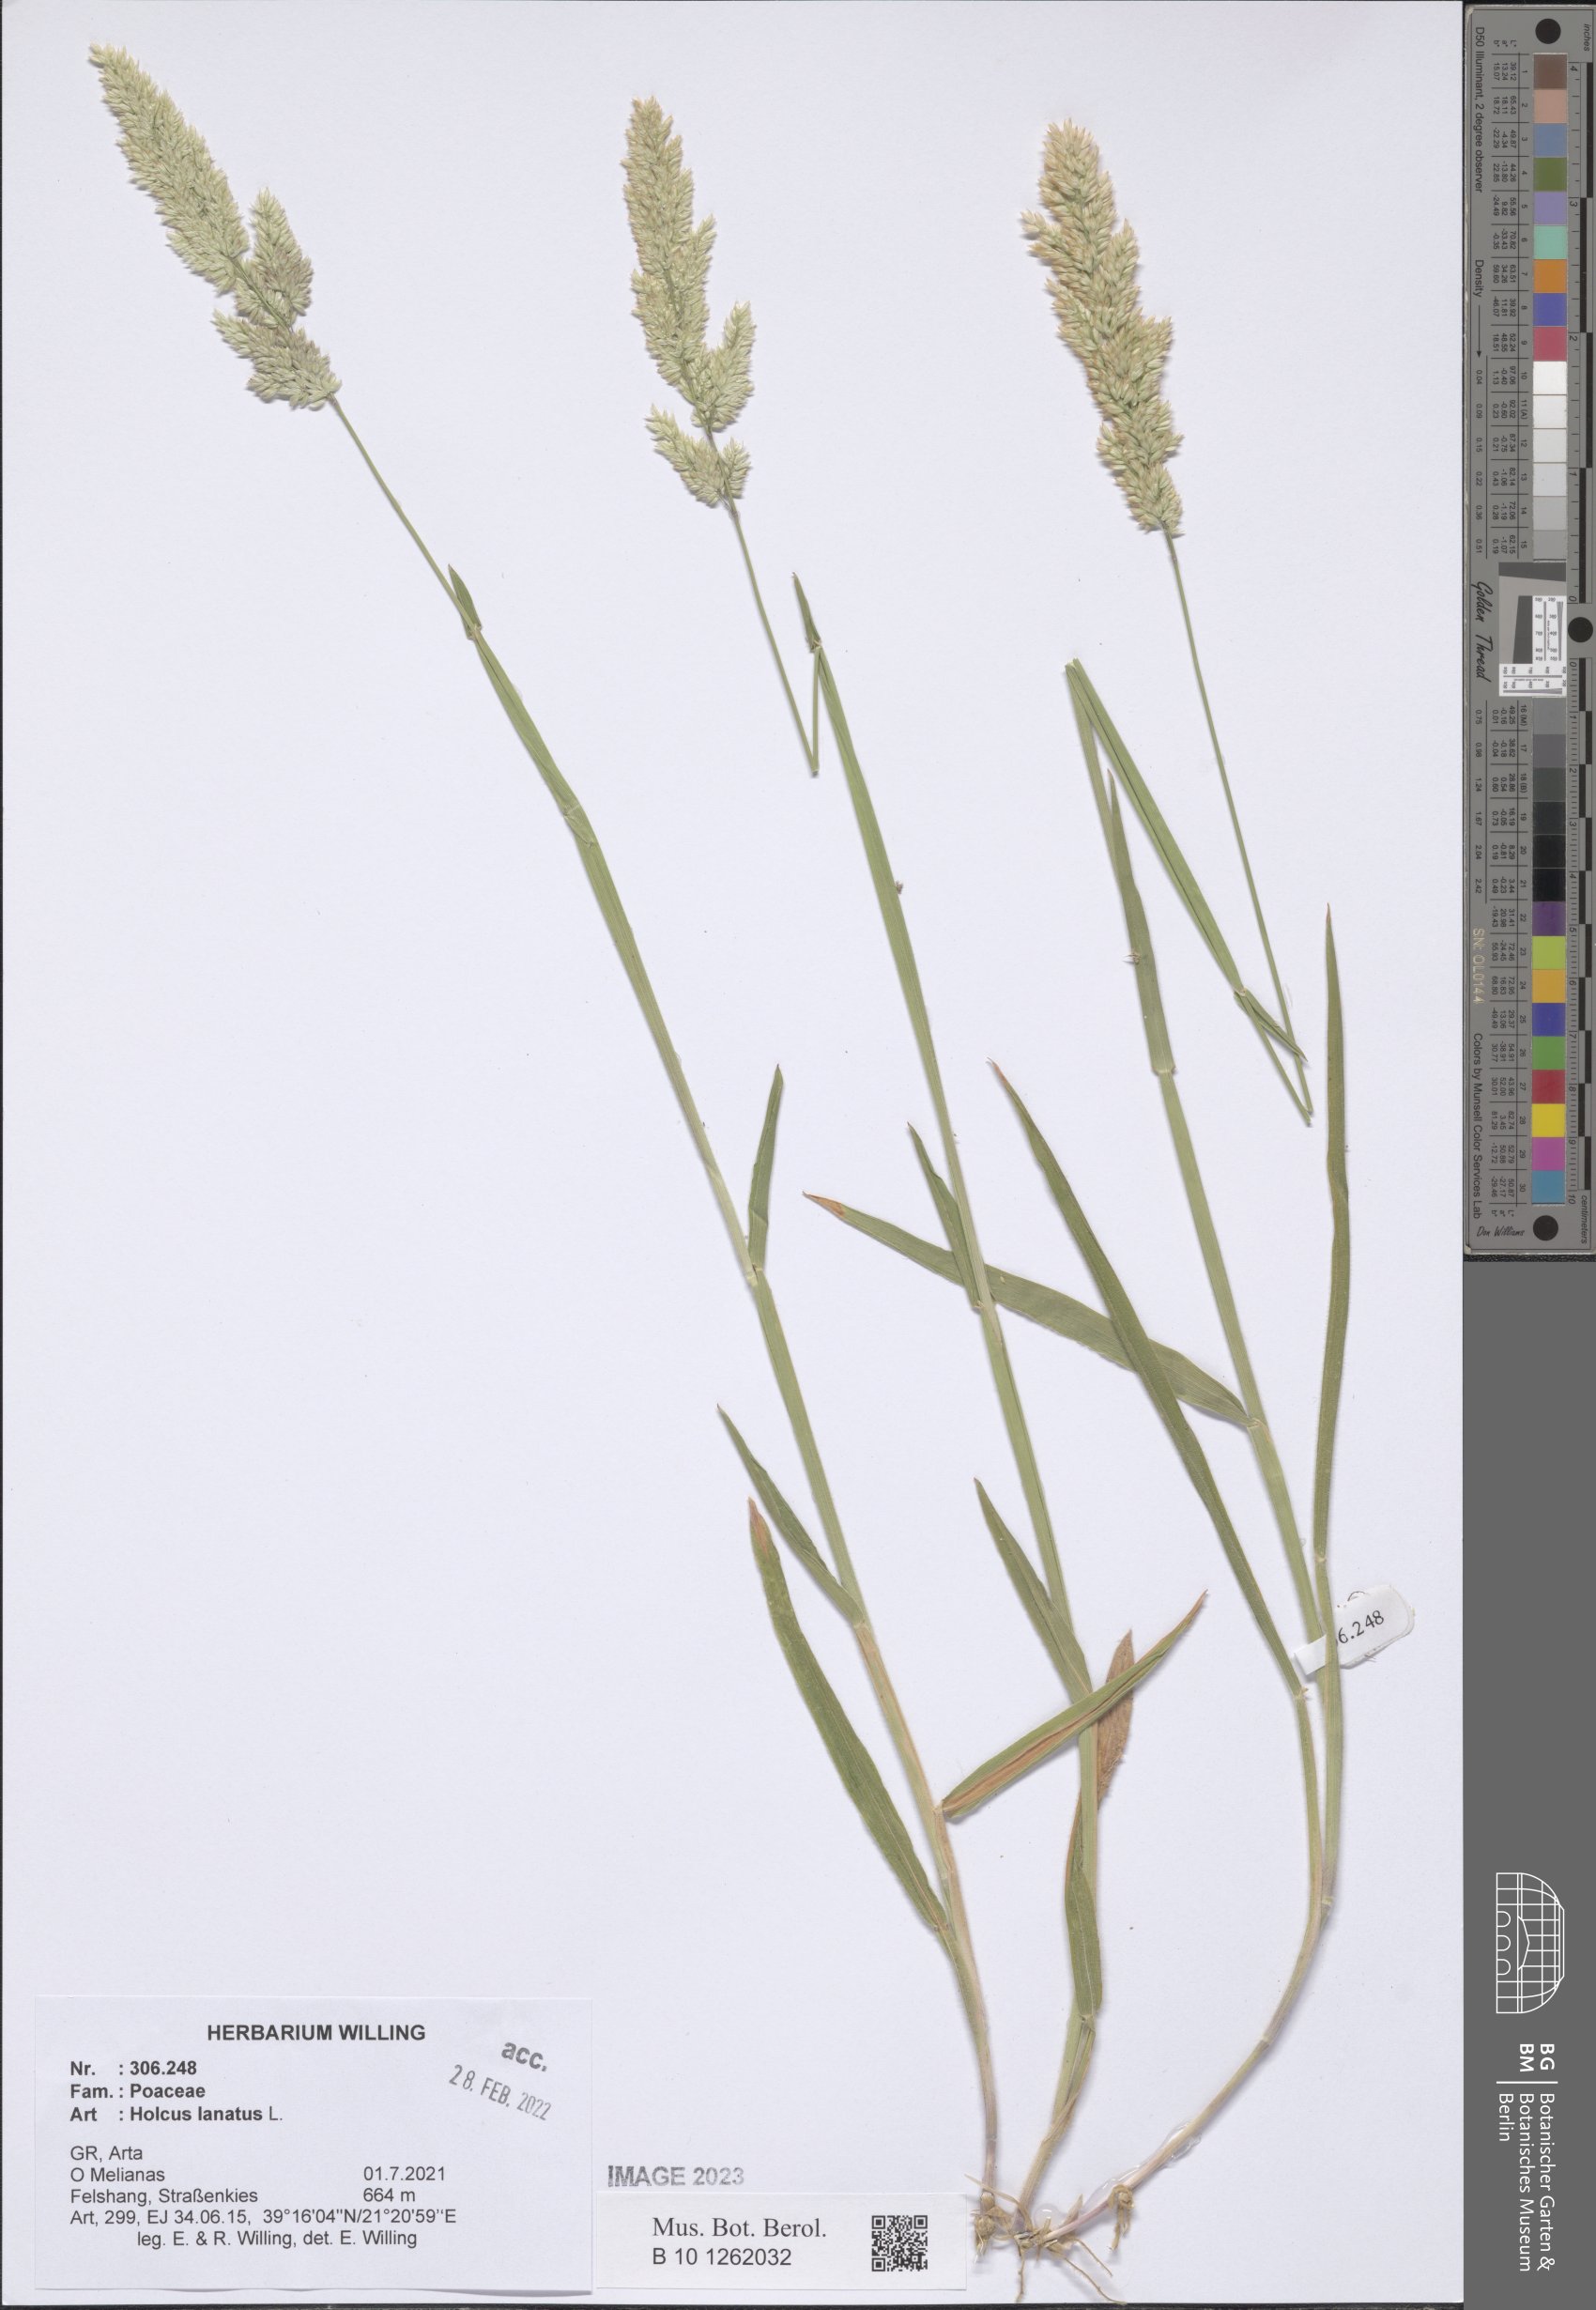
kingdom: Plantae
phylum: Tracheophyta
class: Liliopsida
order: Poales
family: Poaceae
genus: Holcus
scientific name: Holcus lanatus
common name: Yorkshire-fog
